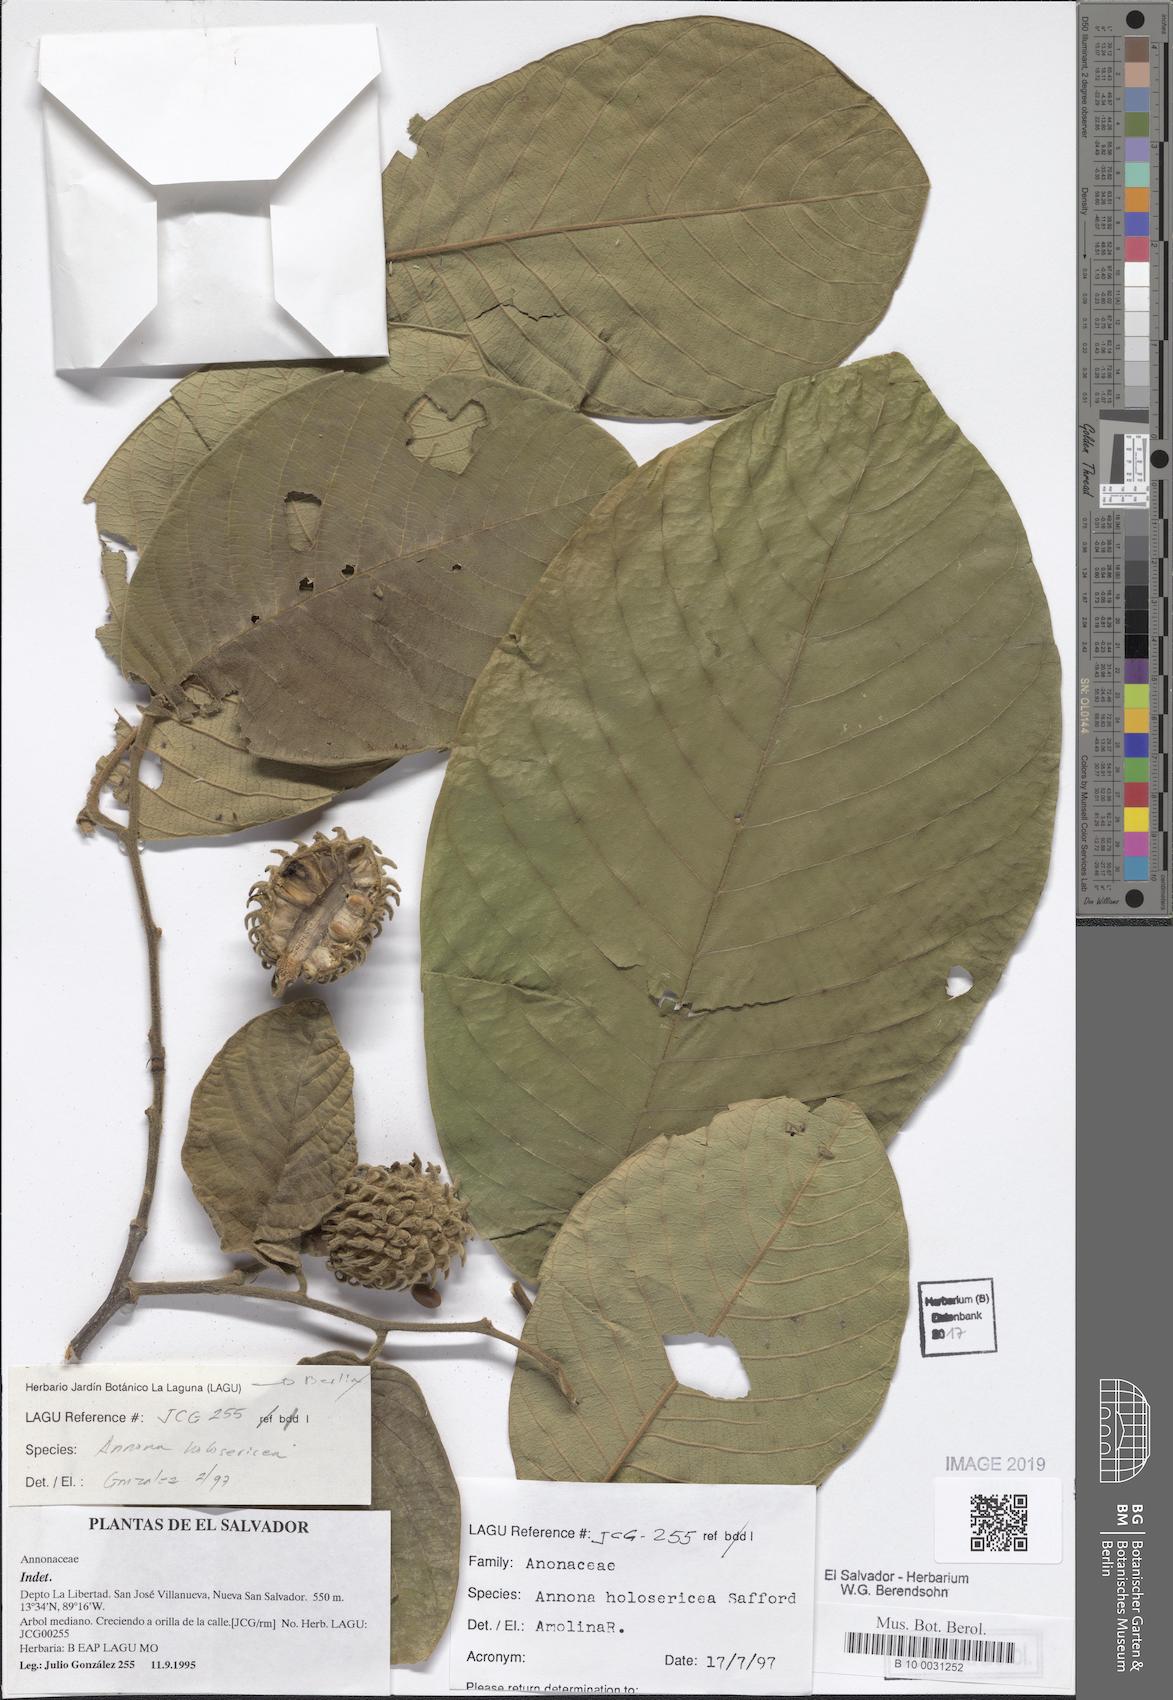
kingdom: Plantae
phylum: Tracheophyta
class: Magnoliopsida
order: Magnoliales
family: Annonaceae
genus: Annona
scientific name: Annona holosericea
